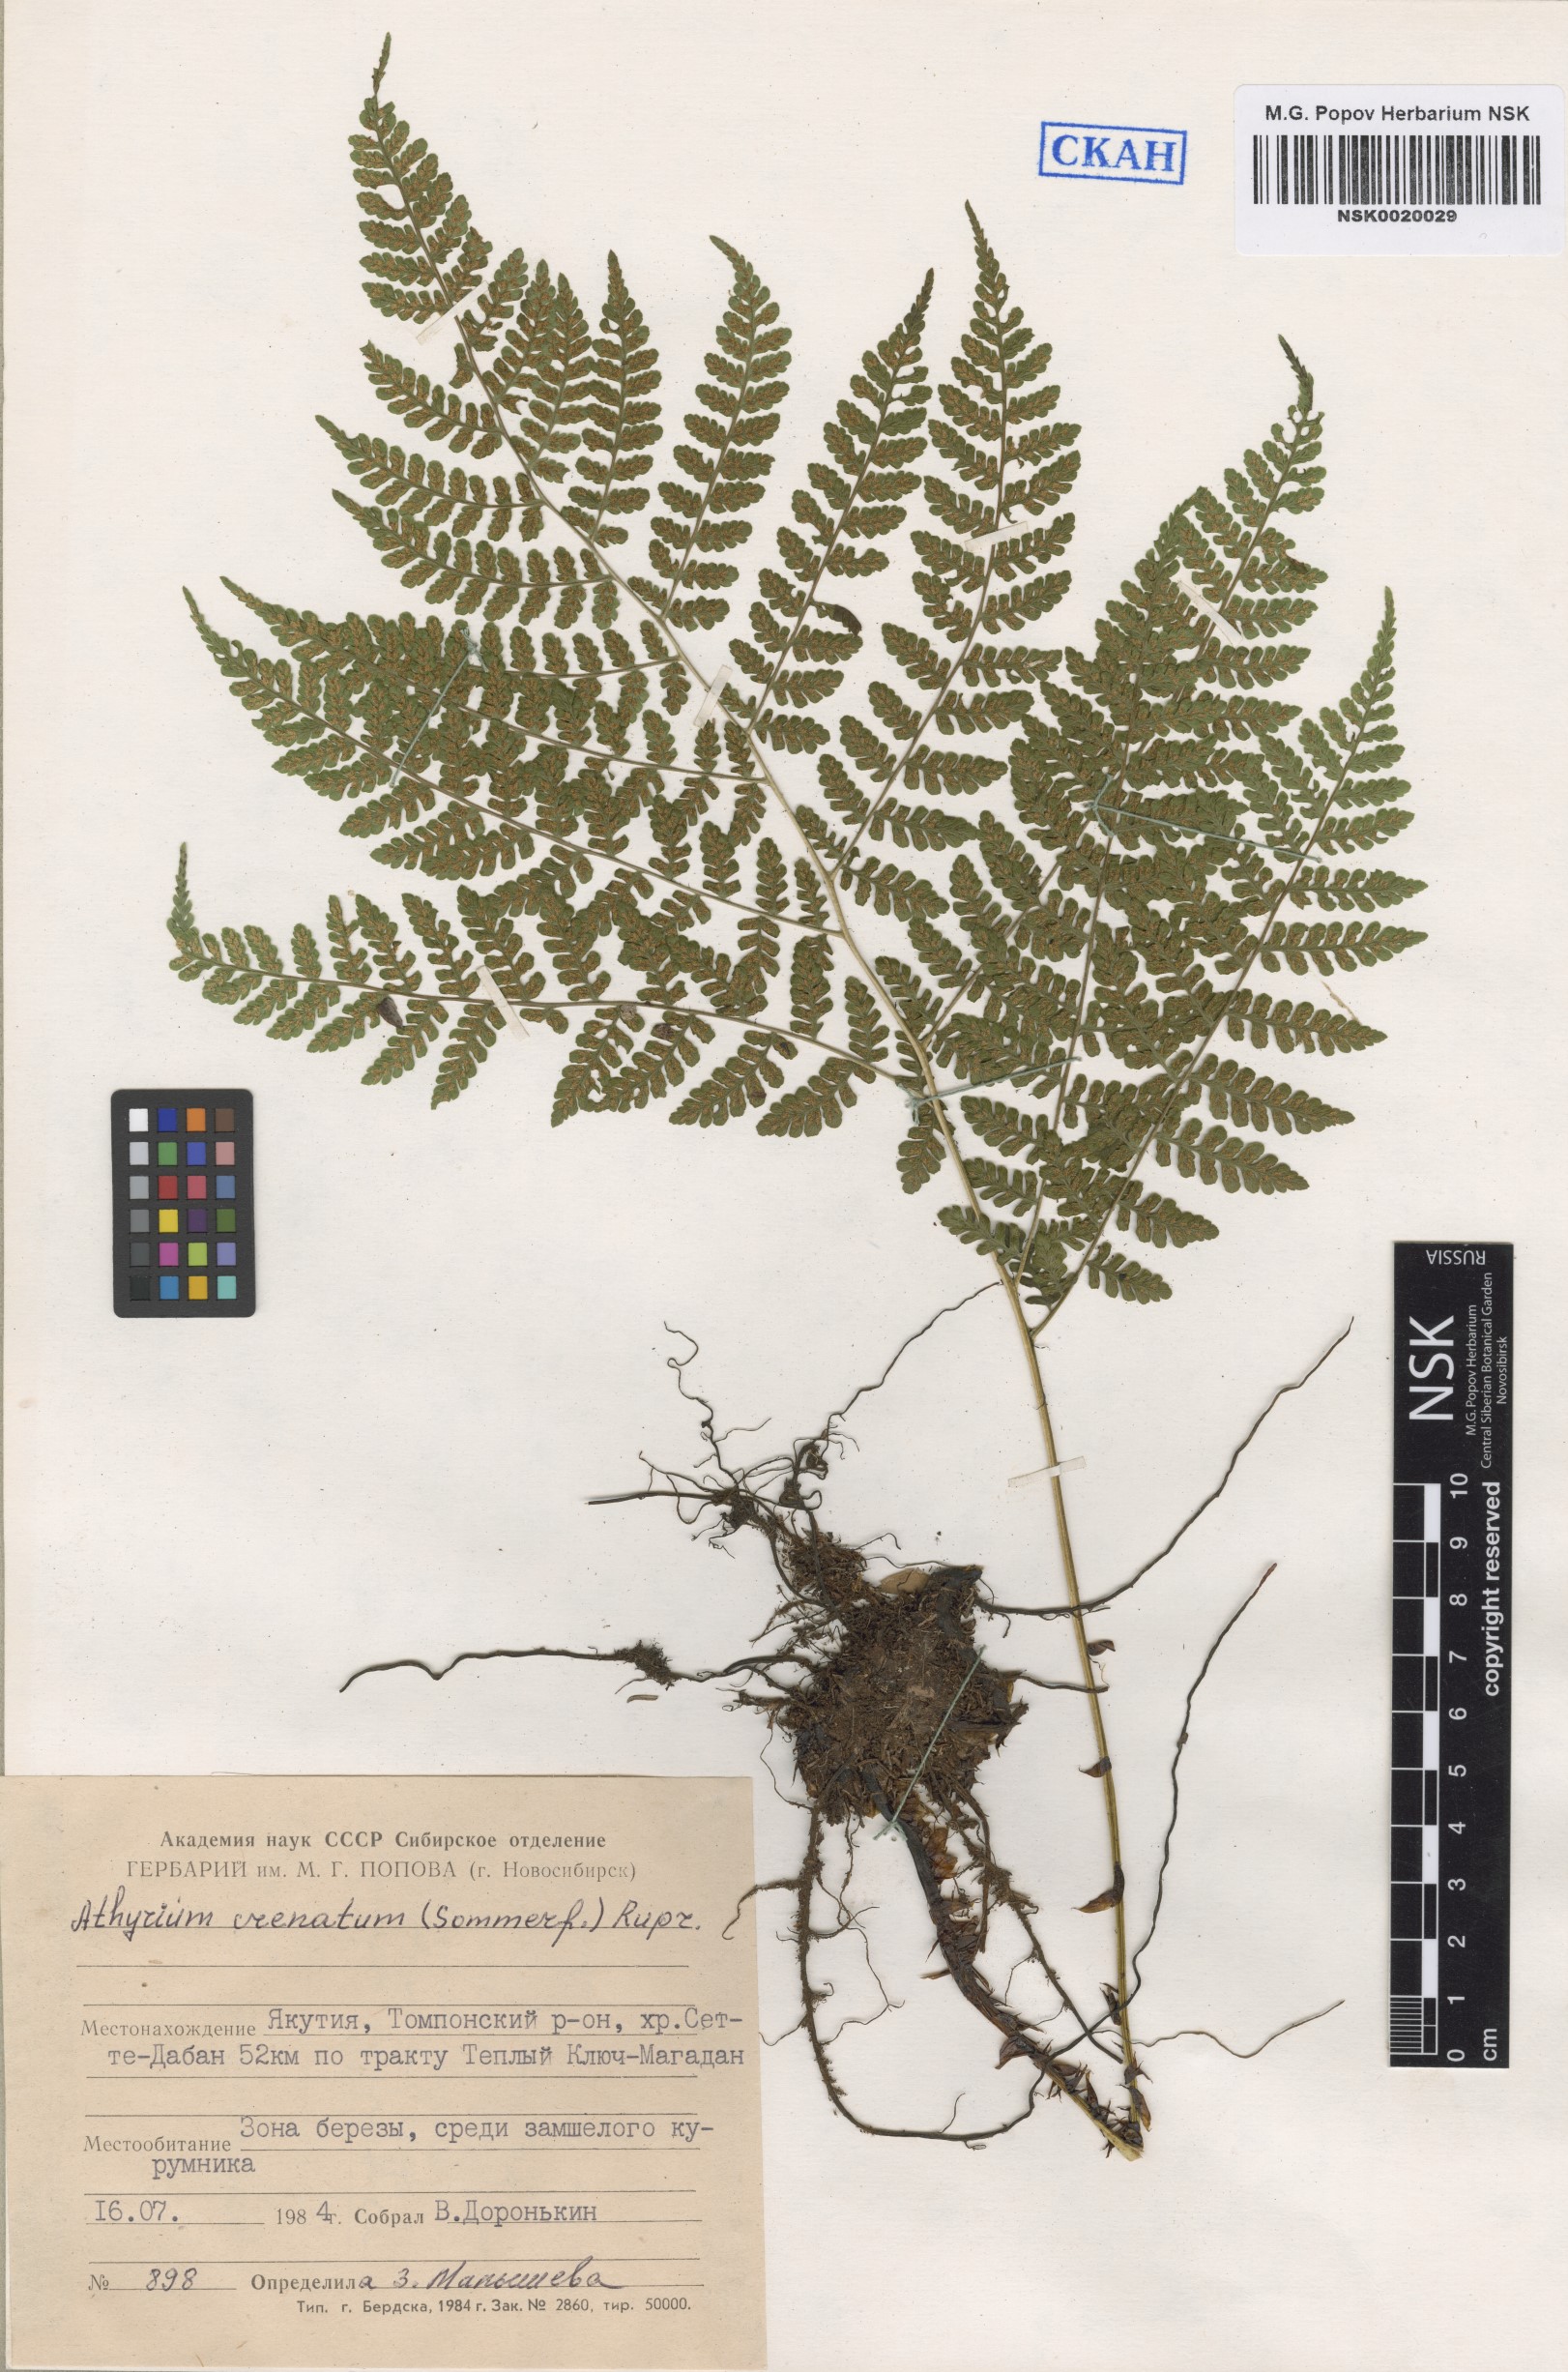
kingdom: Plantae
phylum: Tracheophyta
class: Polypodiopsida
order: Polypodiales
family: Athyriaceae
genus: Diplazium
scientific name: Diplazium sibiricum
